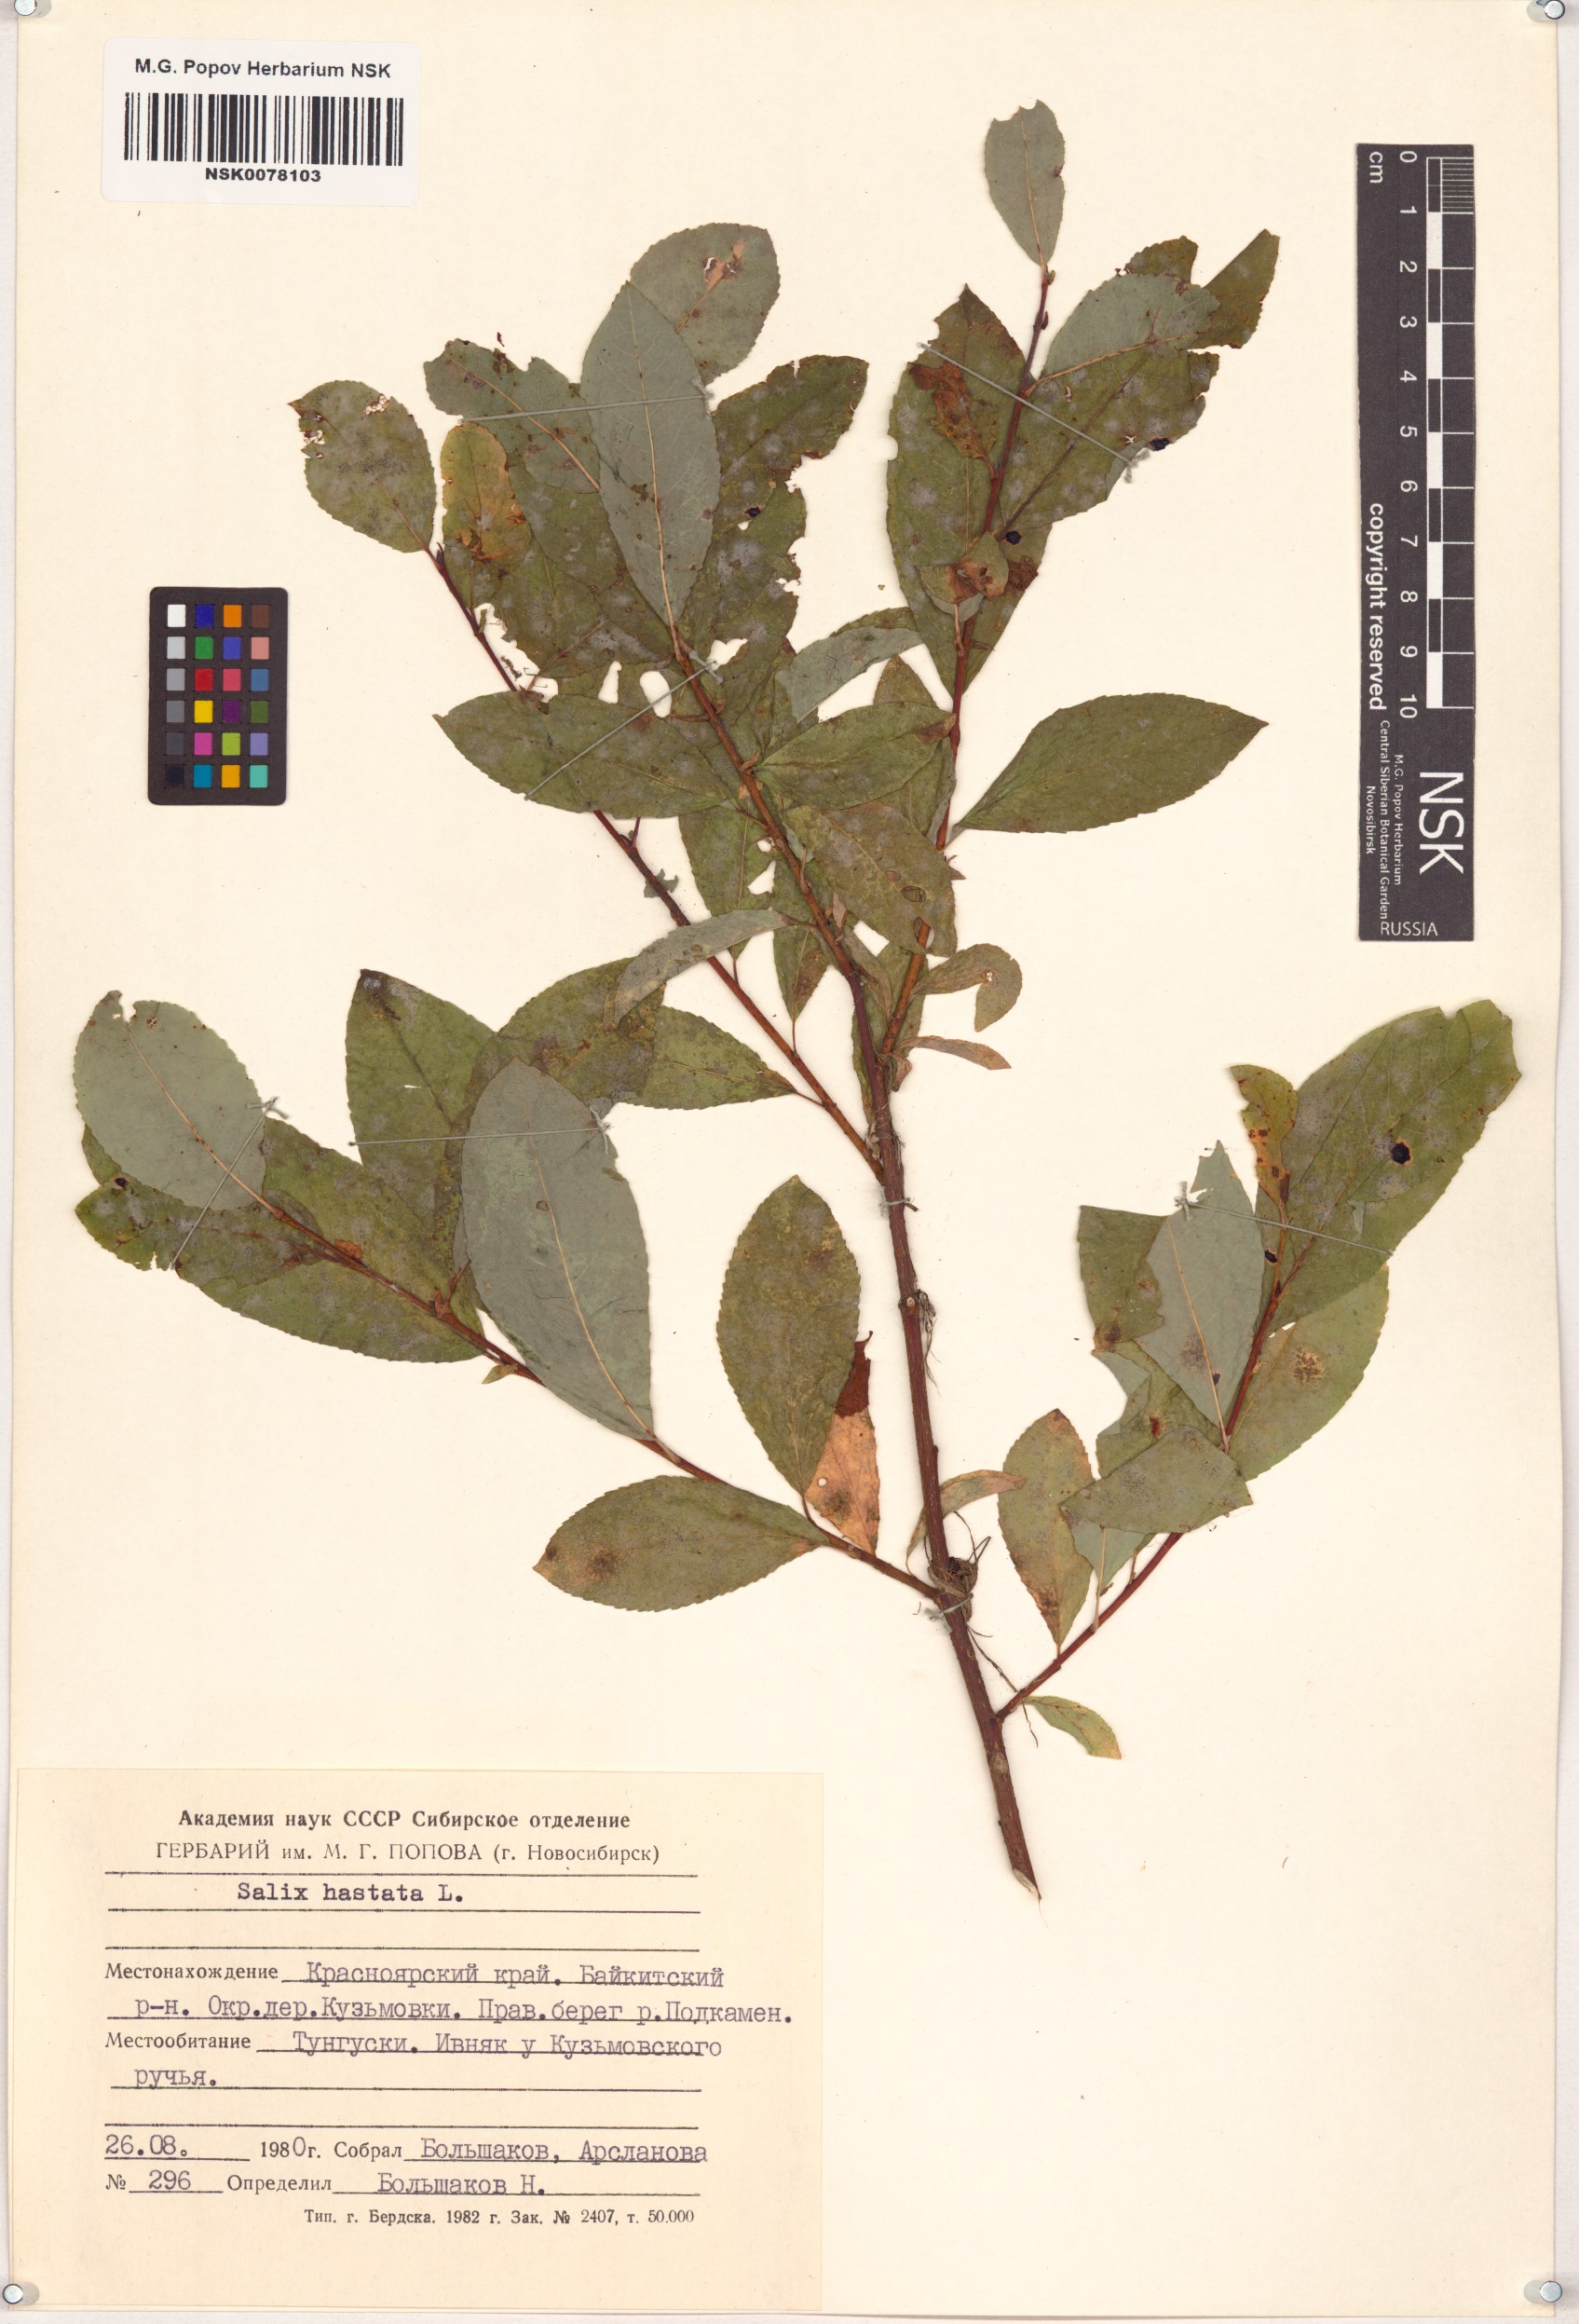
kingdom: Plantae
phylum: Tracheophyta
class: Magnoliopsida
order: Malpighiales
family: Salicaceae
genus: Salix
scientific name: Salix hastata
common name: Halberd willow
